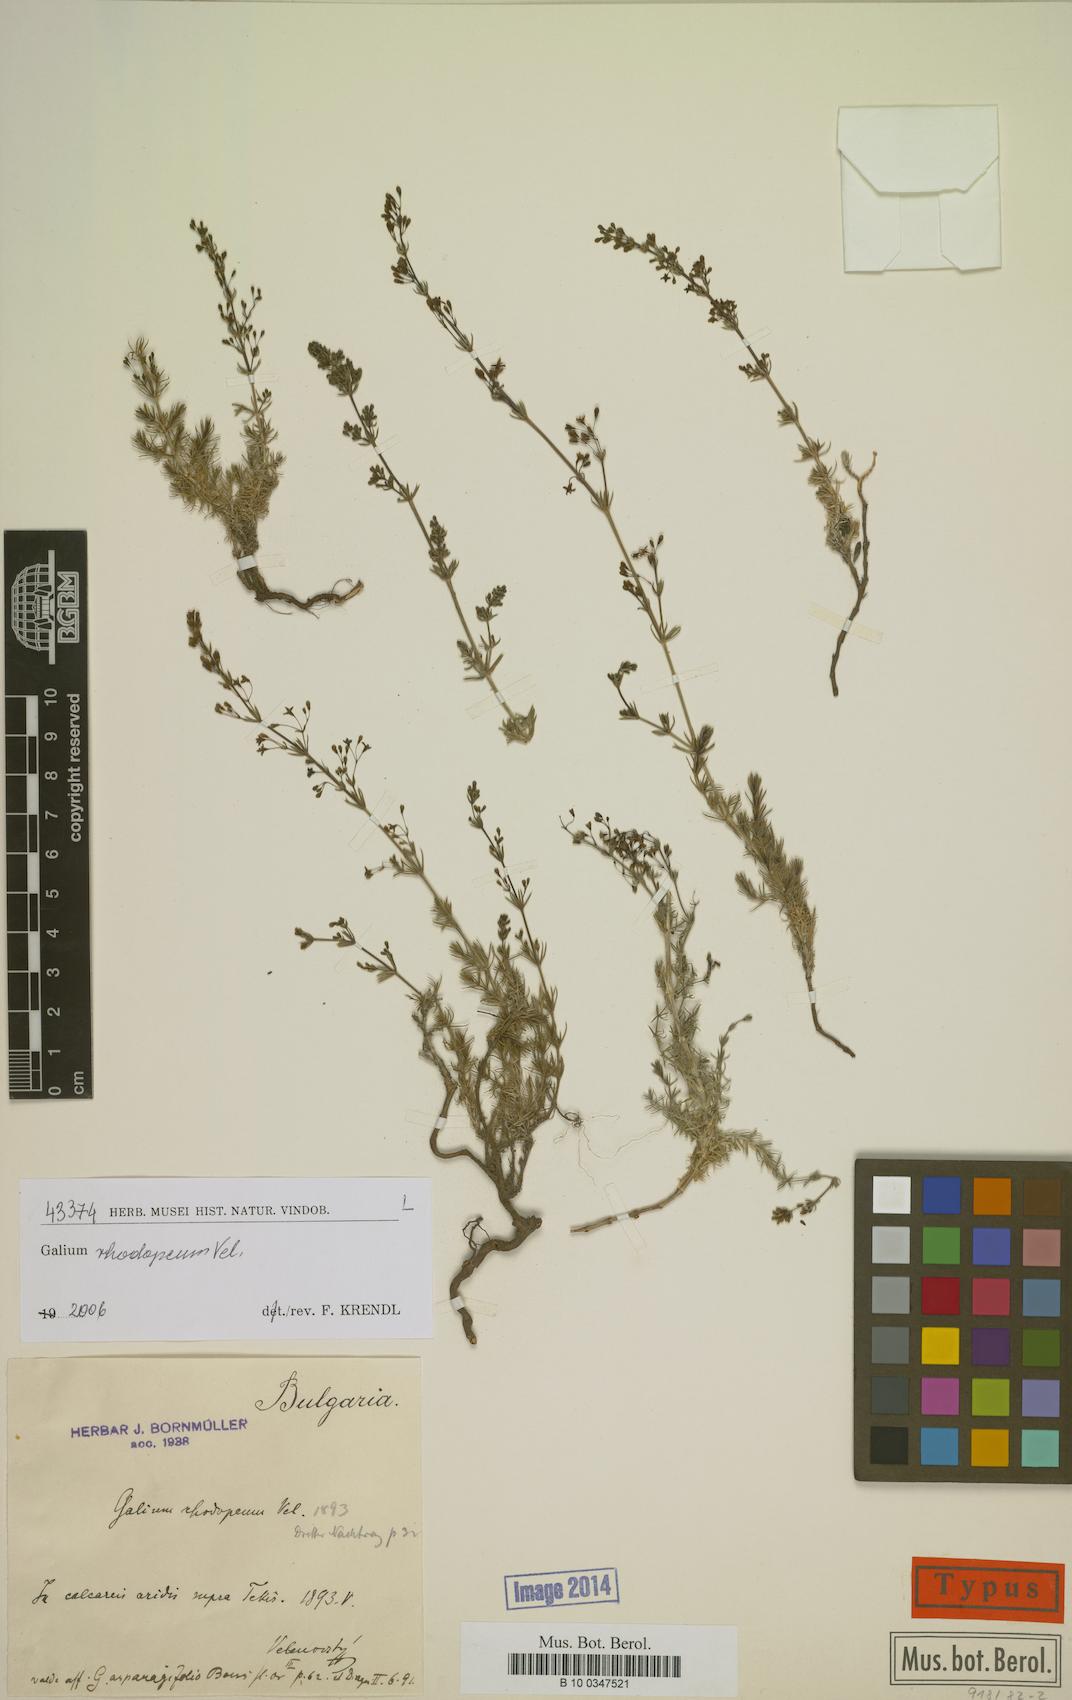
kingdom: Plantae
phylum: Tracheophyta
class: Magnoliopsida
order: Gentianales
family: Rubiaceae
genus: Galium
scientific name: Galium rhodopeum
